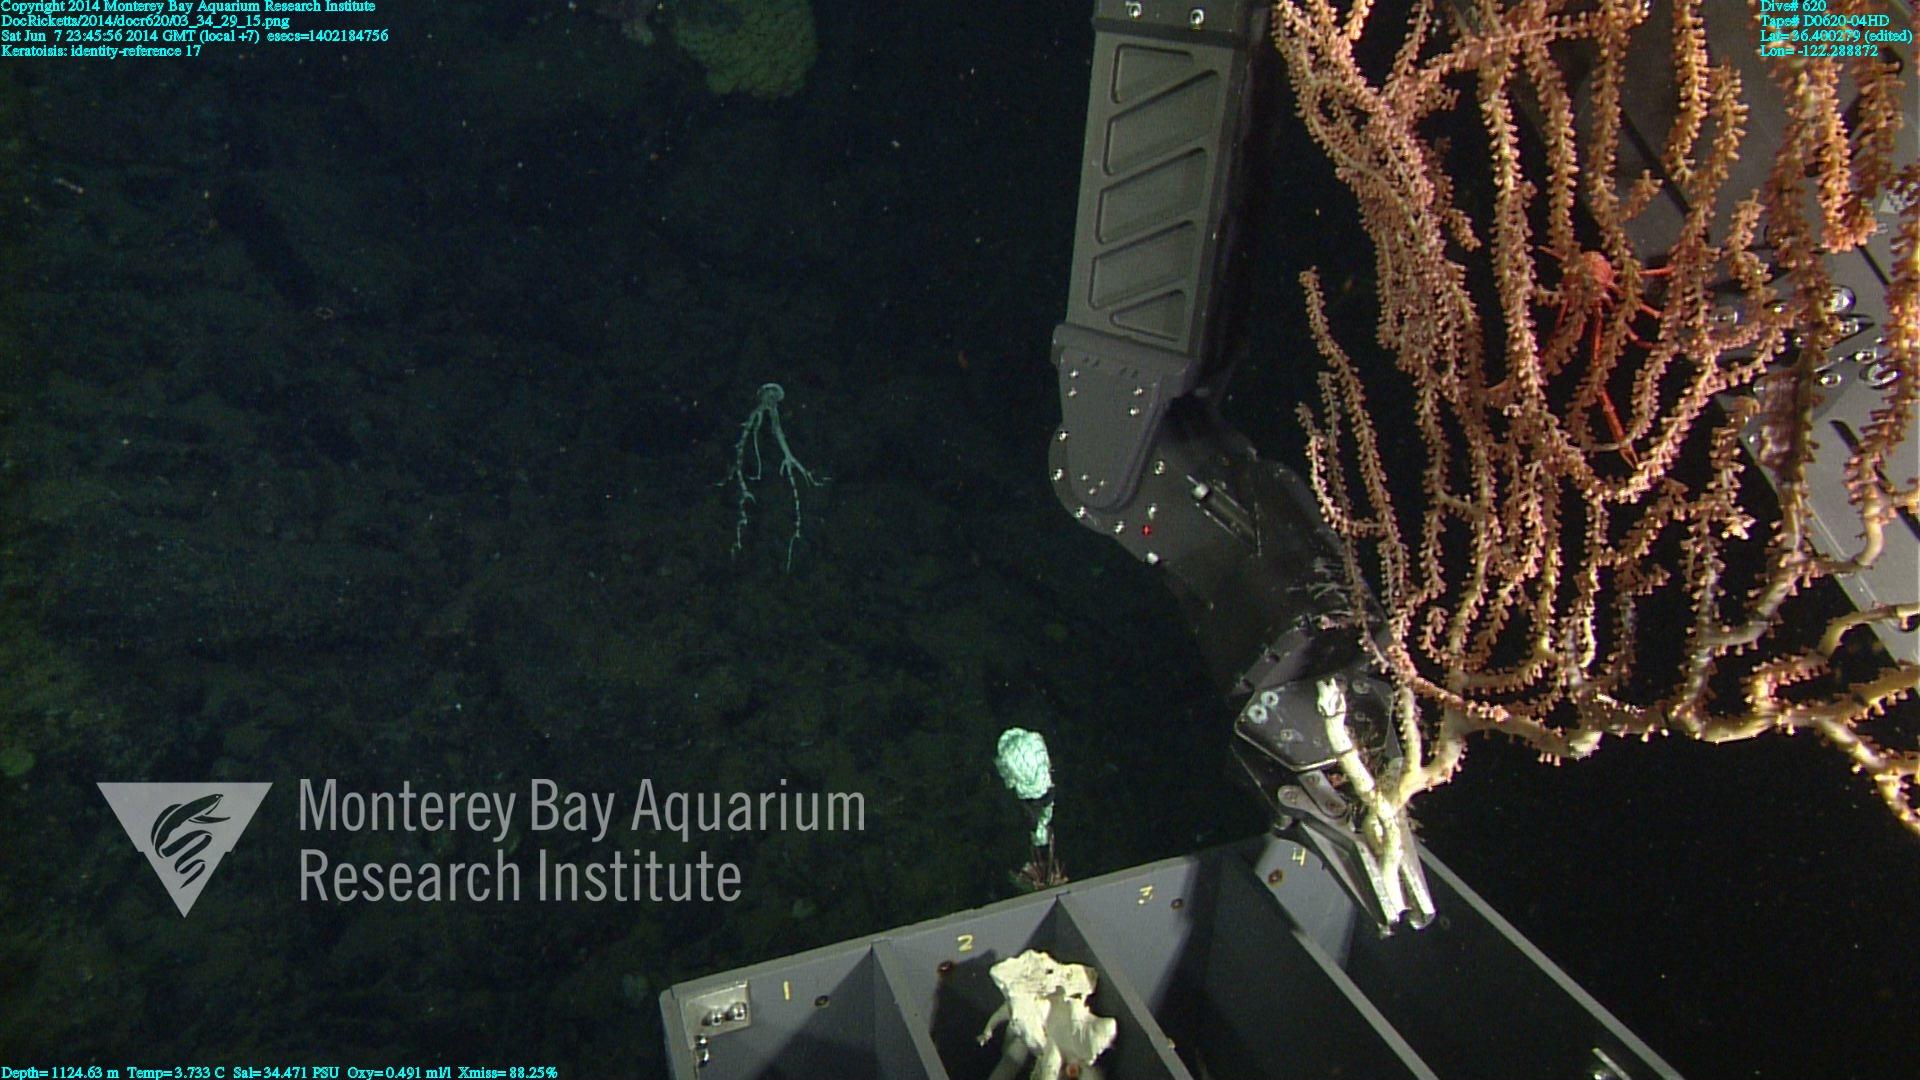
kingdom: Animalia
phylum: Cnidaria
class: Anthozoa
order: Scleralcyonacea
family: Keratoisididae
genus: Keratoisis
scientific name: Keratoisis
